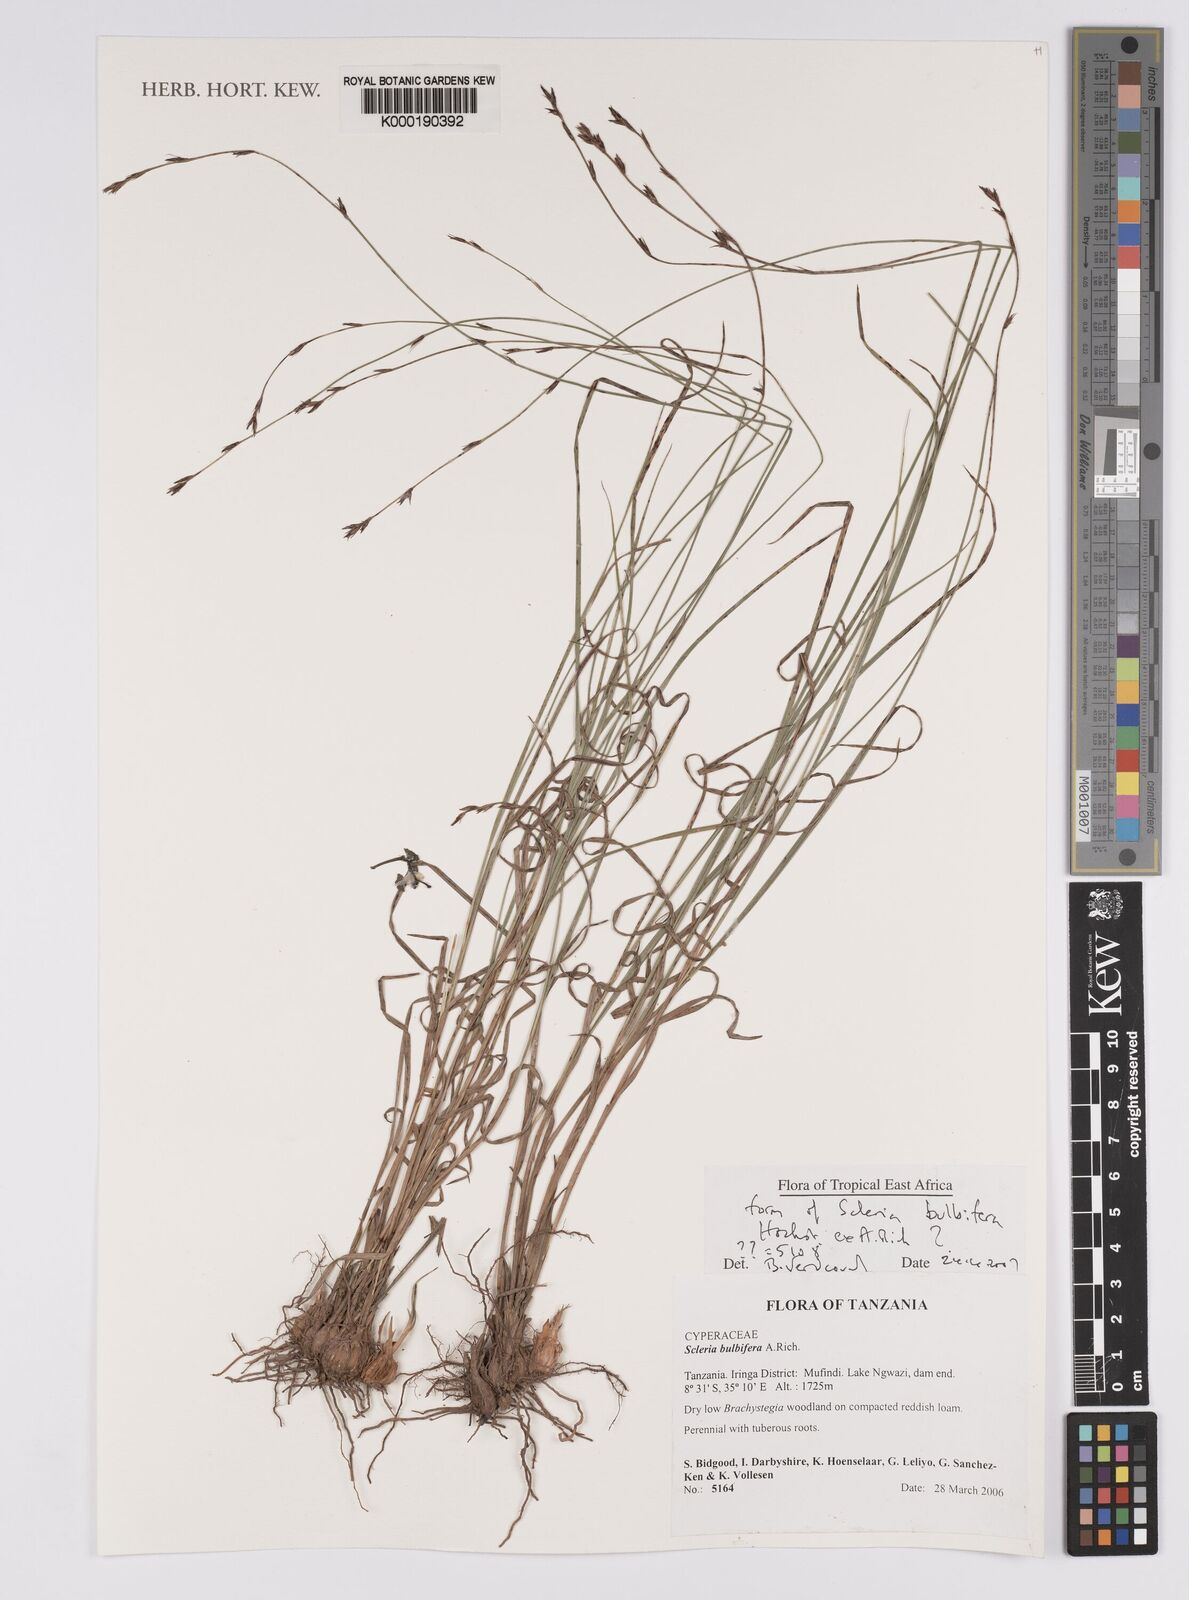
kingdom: Plantae
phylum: Tracheophyta
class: Liliopsida
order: Poales
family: Cyperaceae
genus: Scleria
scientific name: Scleria bulbifera
